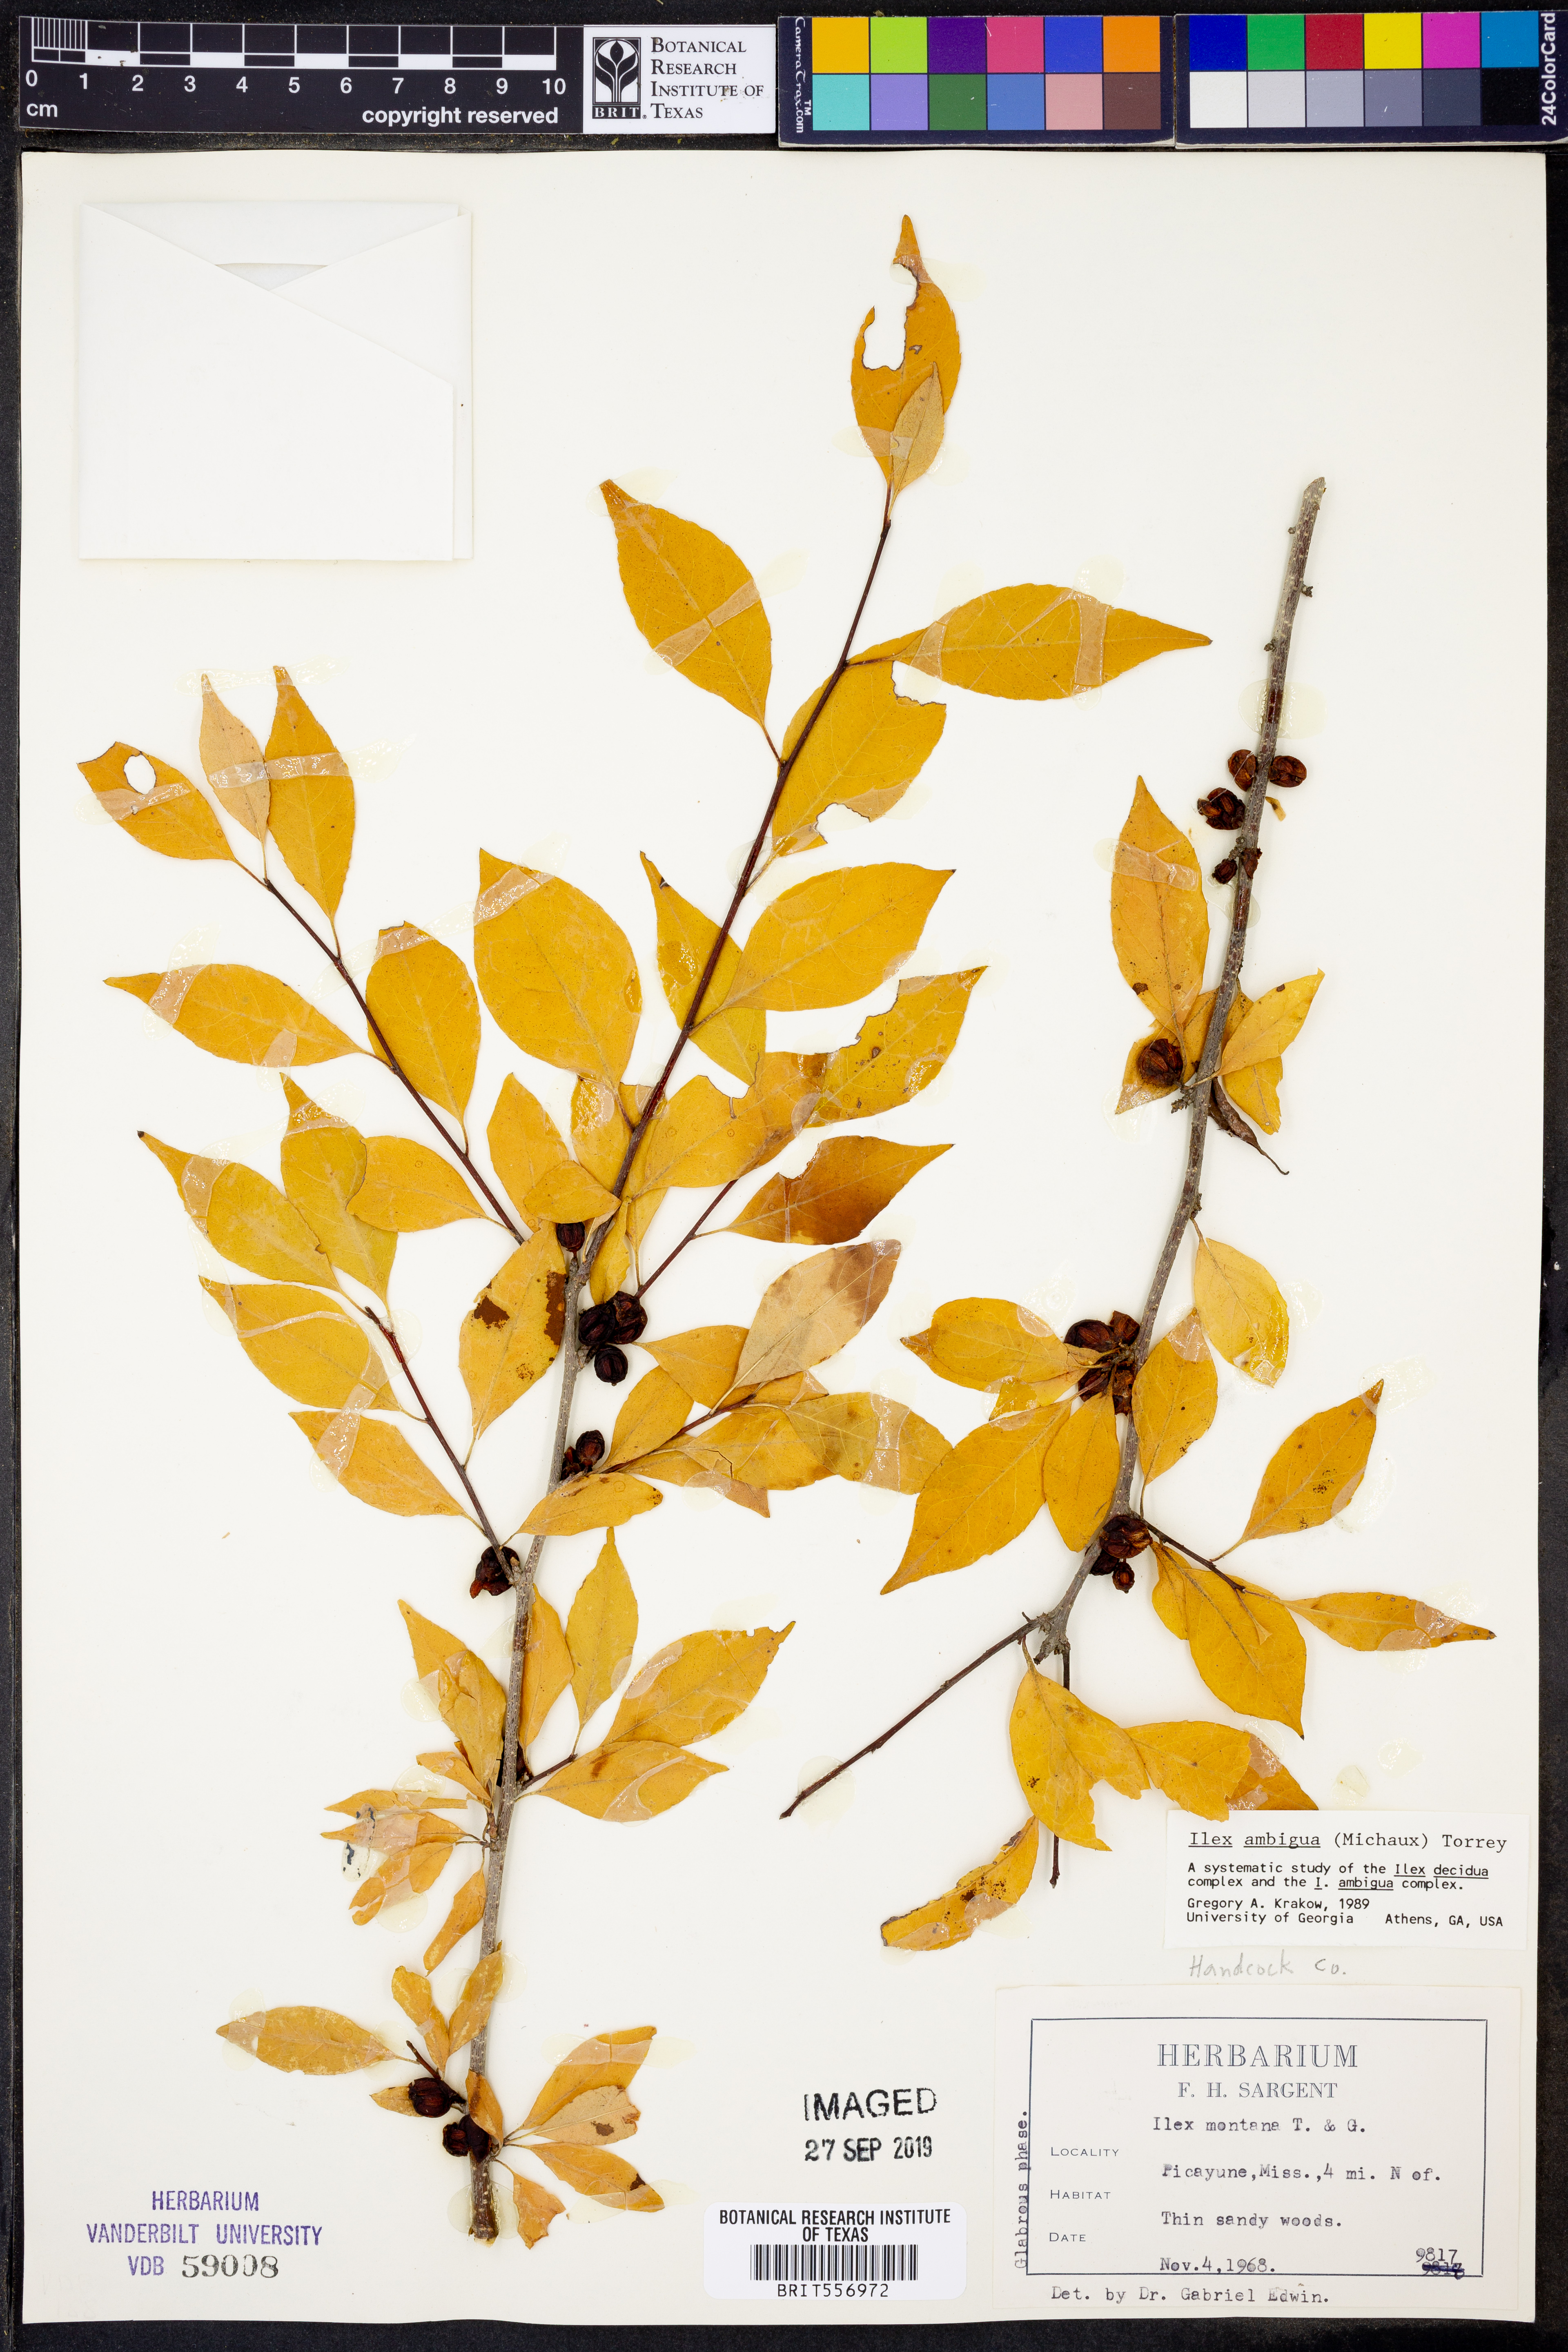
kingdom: Plantae
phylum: Tracheophyta
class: Magnoliopsida
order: Aquifoliales
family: Aquifoliaceae
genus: Ilex
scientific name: Ilex ambigua
